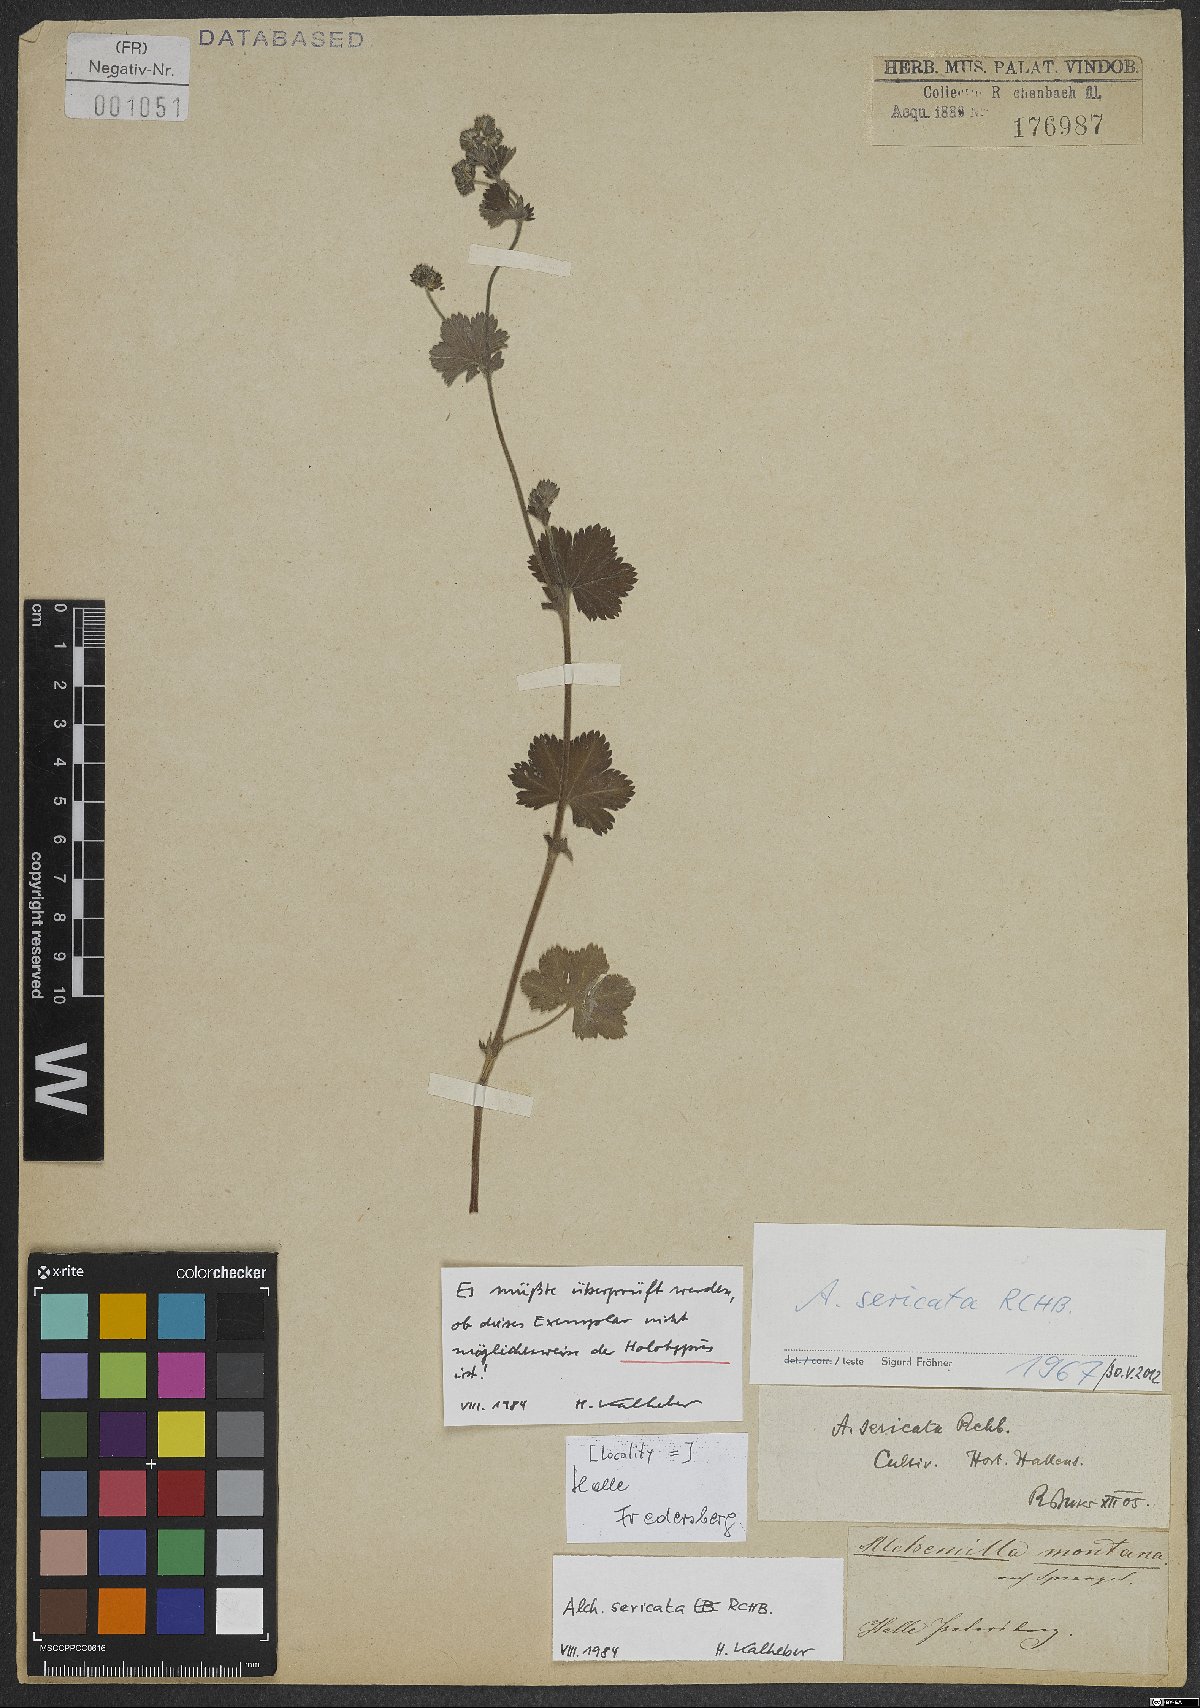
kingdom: Plantae
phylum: Tracheophyta
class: Magnoliopsida
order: Rosales
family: Rosaceae
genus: Alchemilla
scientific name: Alchemilla sericata
